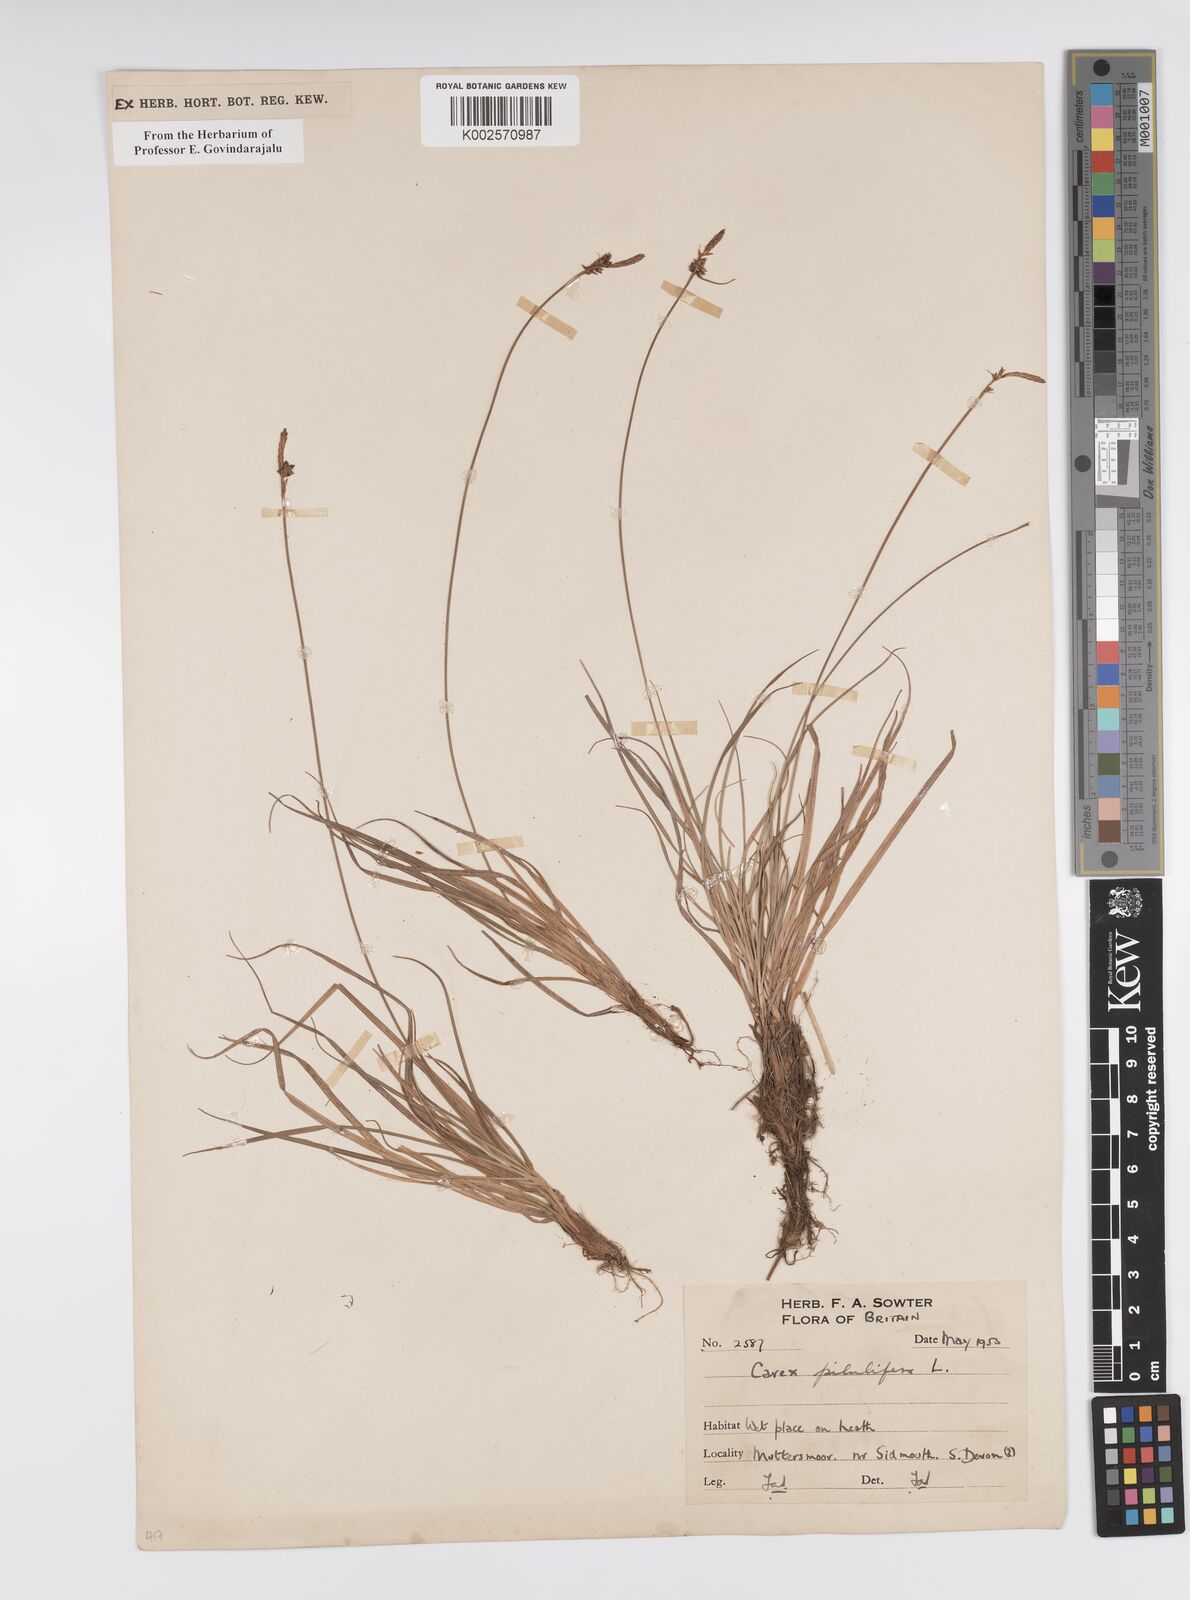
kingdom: Plantae
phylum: Tracheophyta
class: Liliopsida
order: Poales
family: Cyperaceae
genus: Carex
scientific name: Carex praecox
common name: Early sedge
